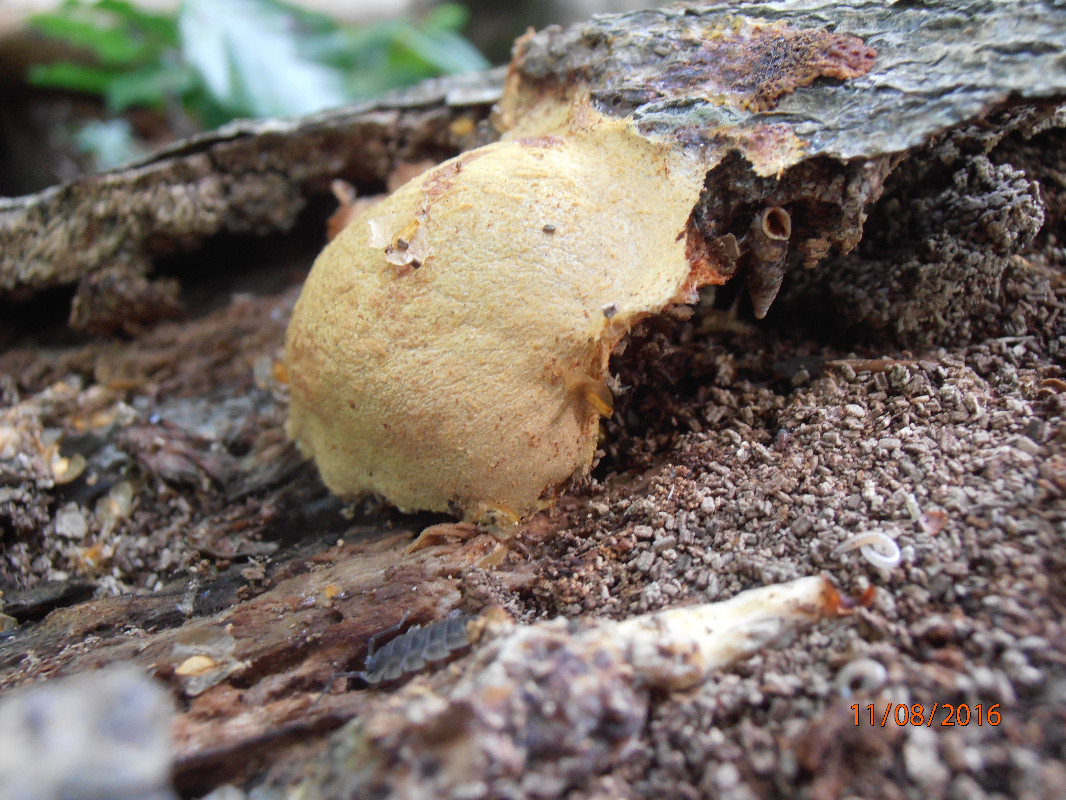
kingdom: Protozoa
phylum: Mycetozoa
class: Myxomycetes
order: Physarales
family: Physaraceae
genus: Fuligo
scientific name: Fuligo leviderma
